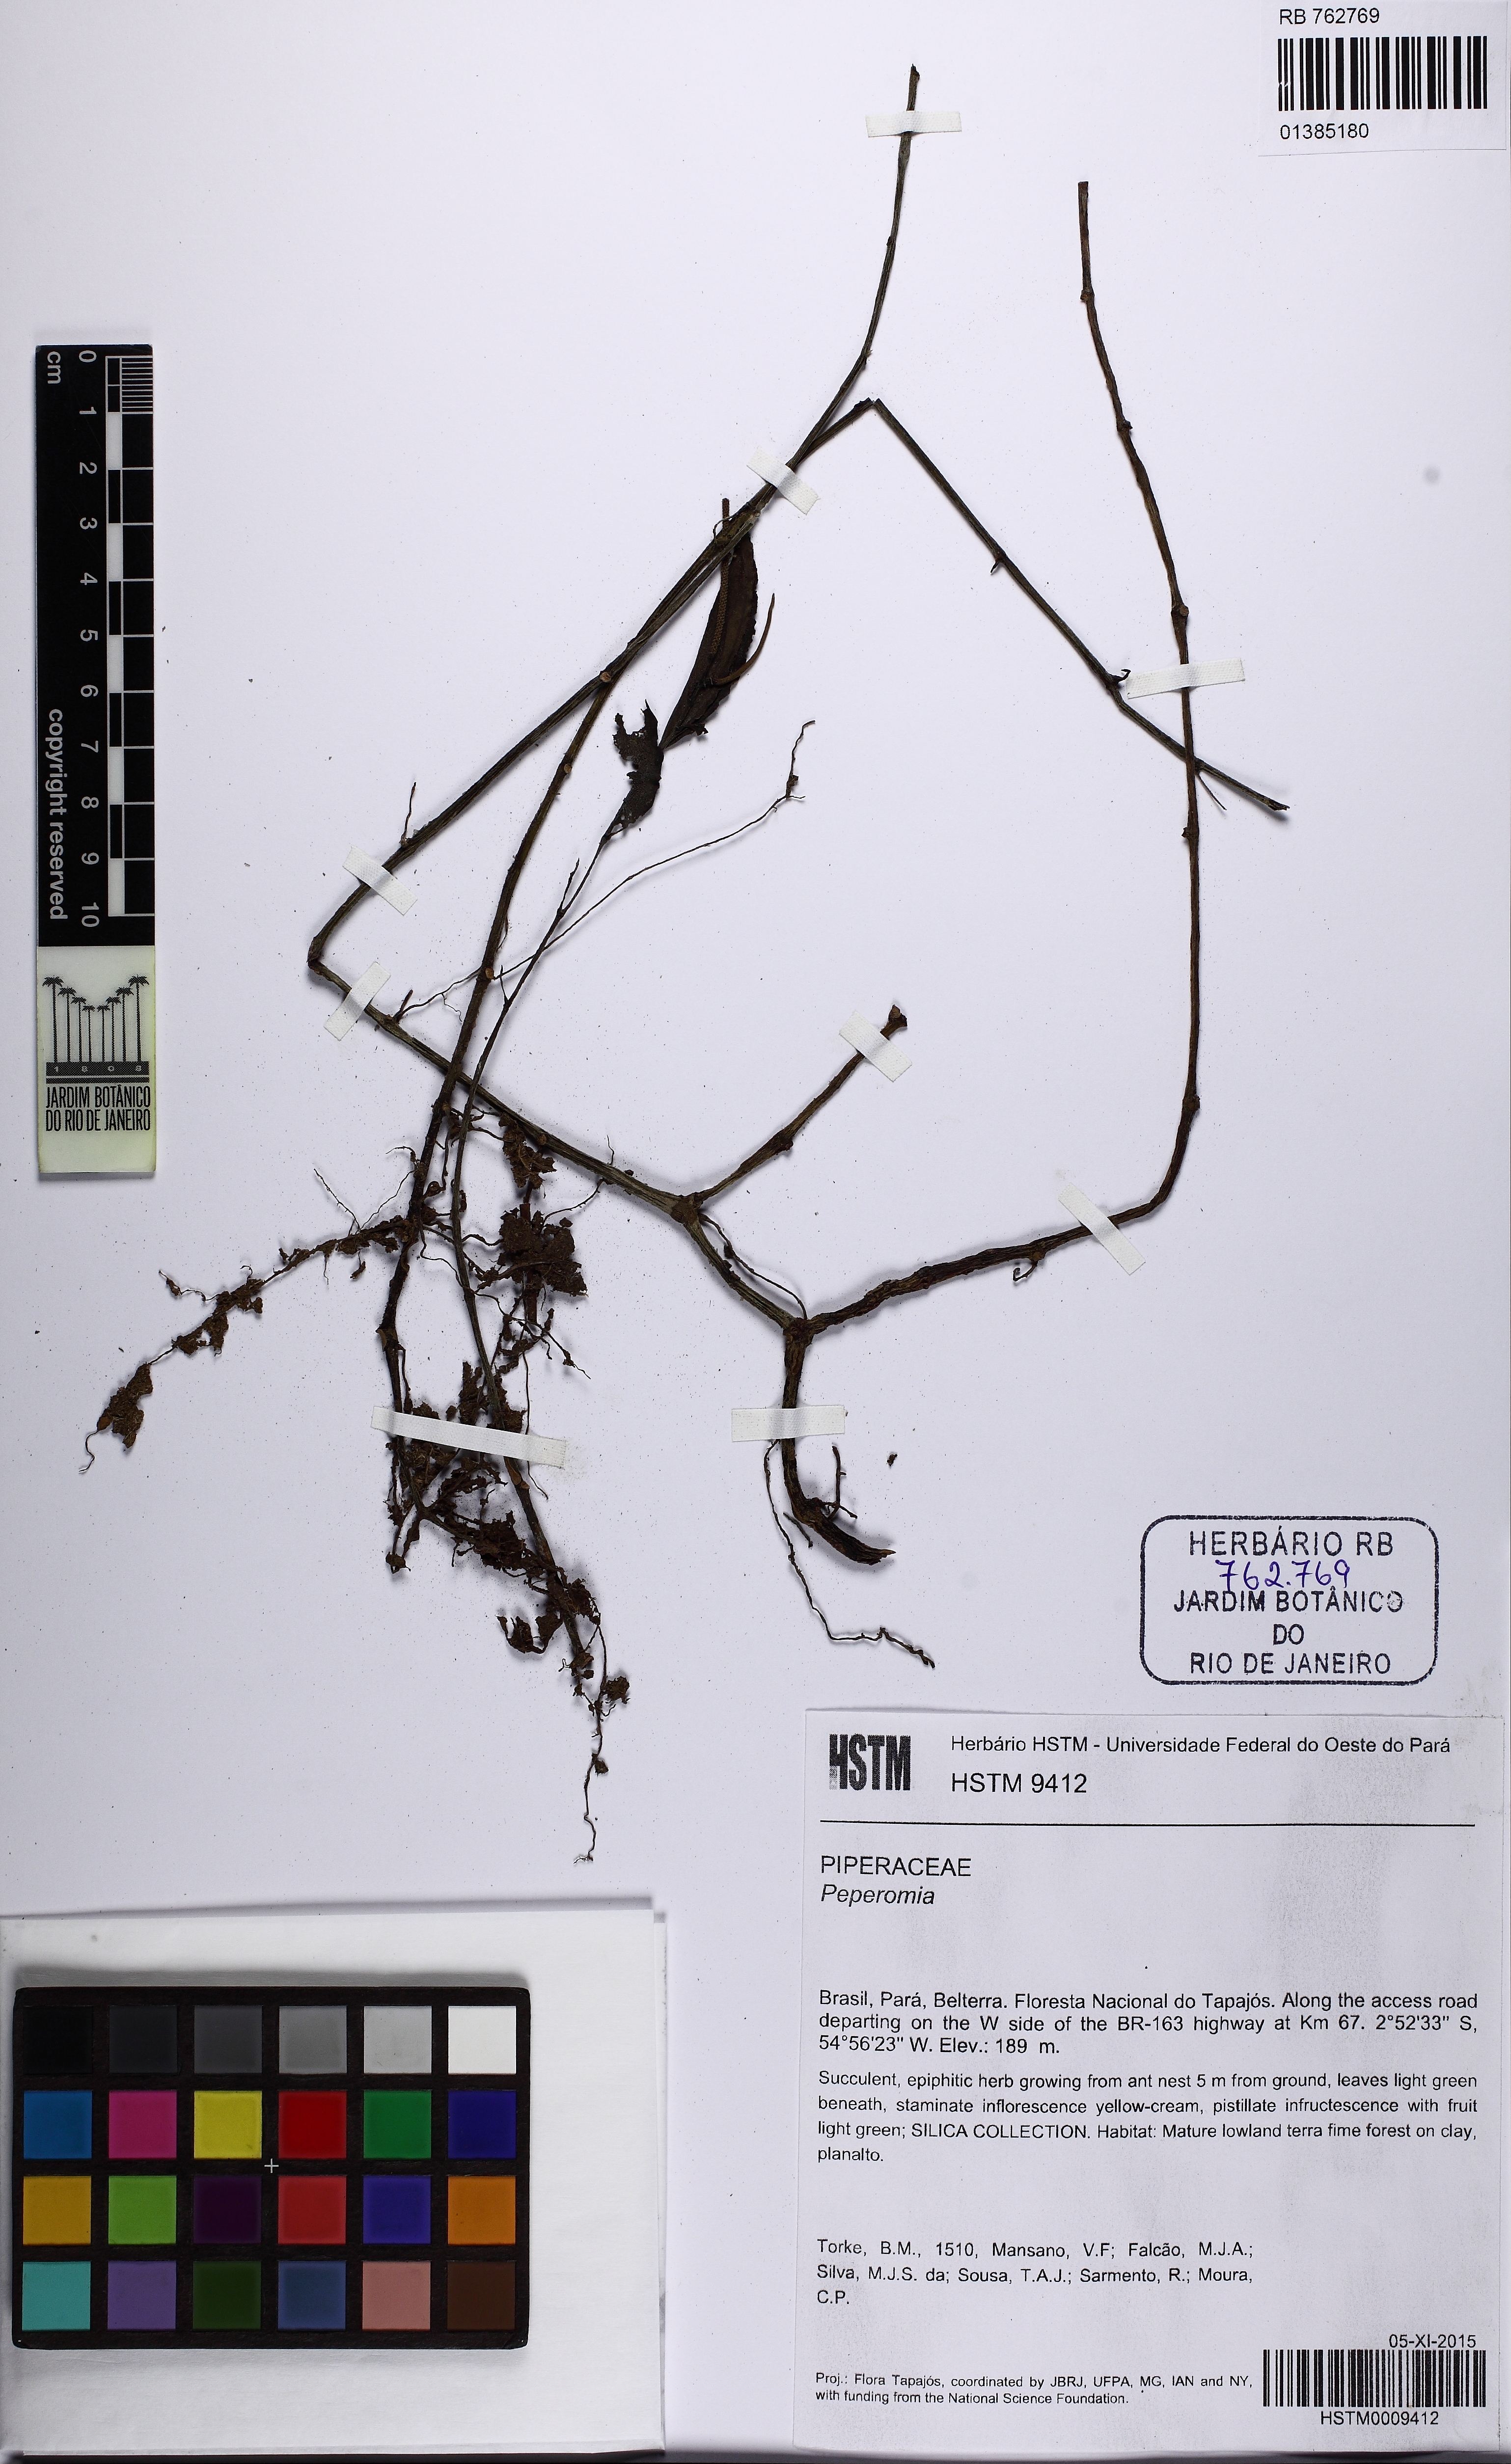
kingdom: Plantae
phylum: Tracheophyta
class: Magnoliopsida
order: Piperales
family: Piperaceae
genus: Peperomia
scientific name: Peperomia macrostachyos
